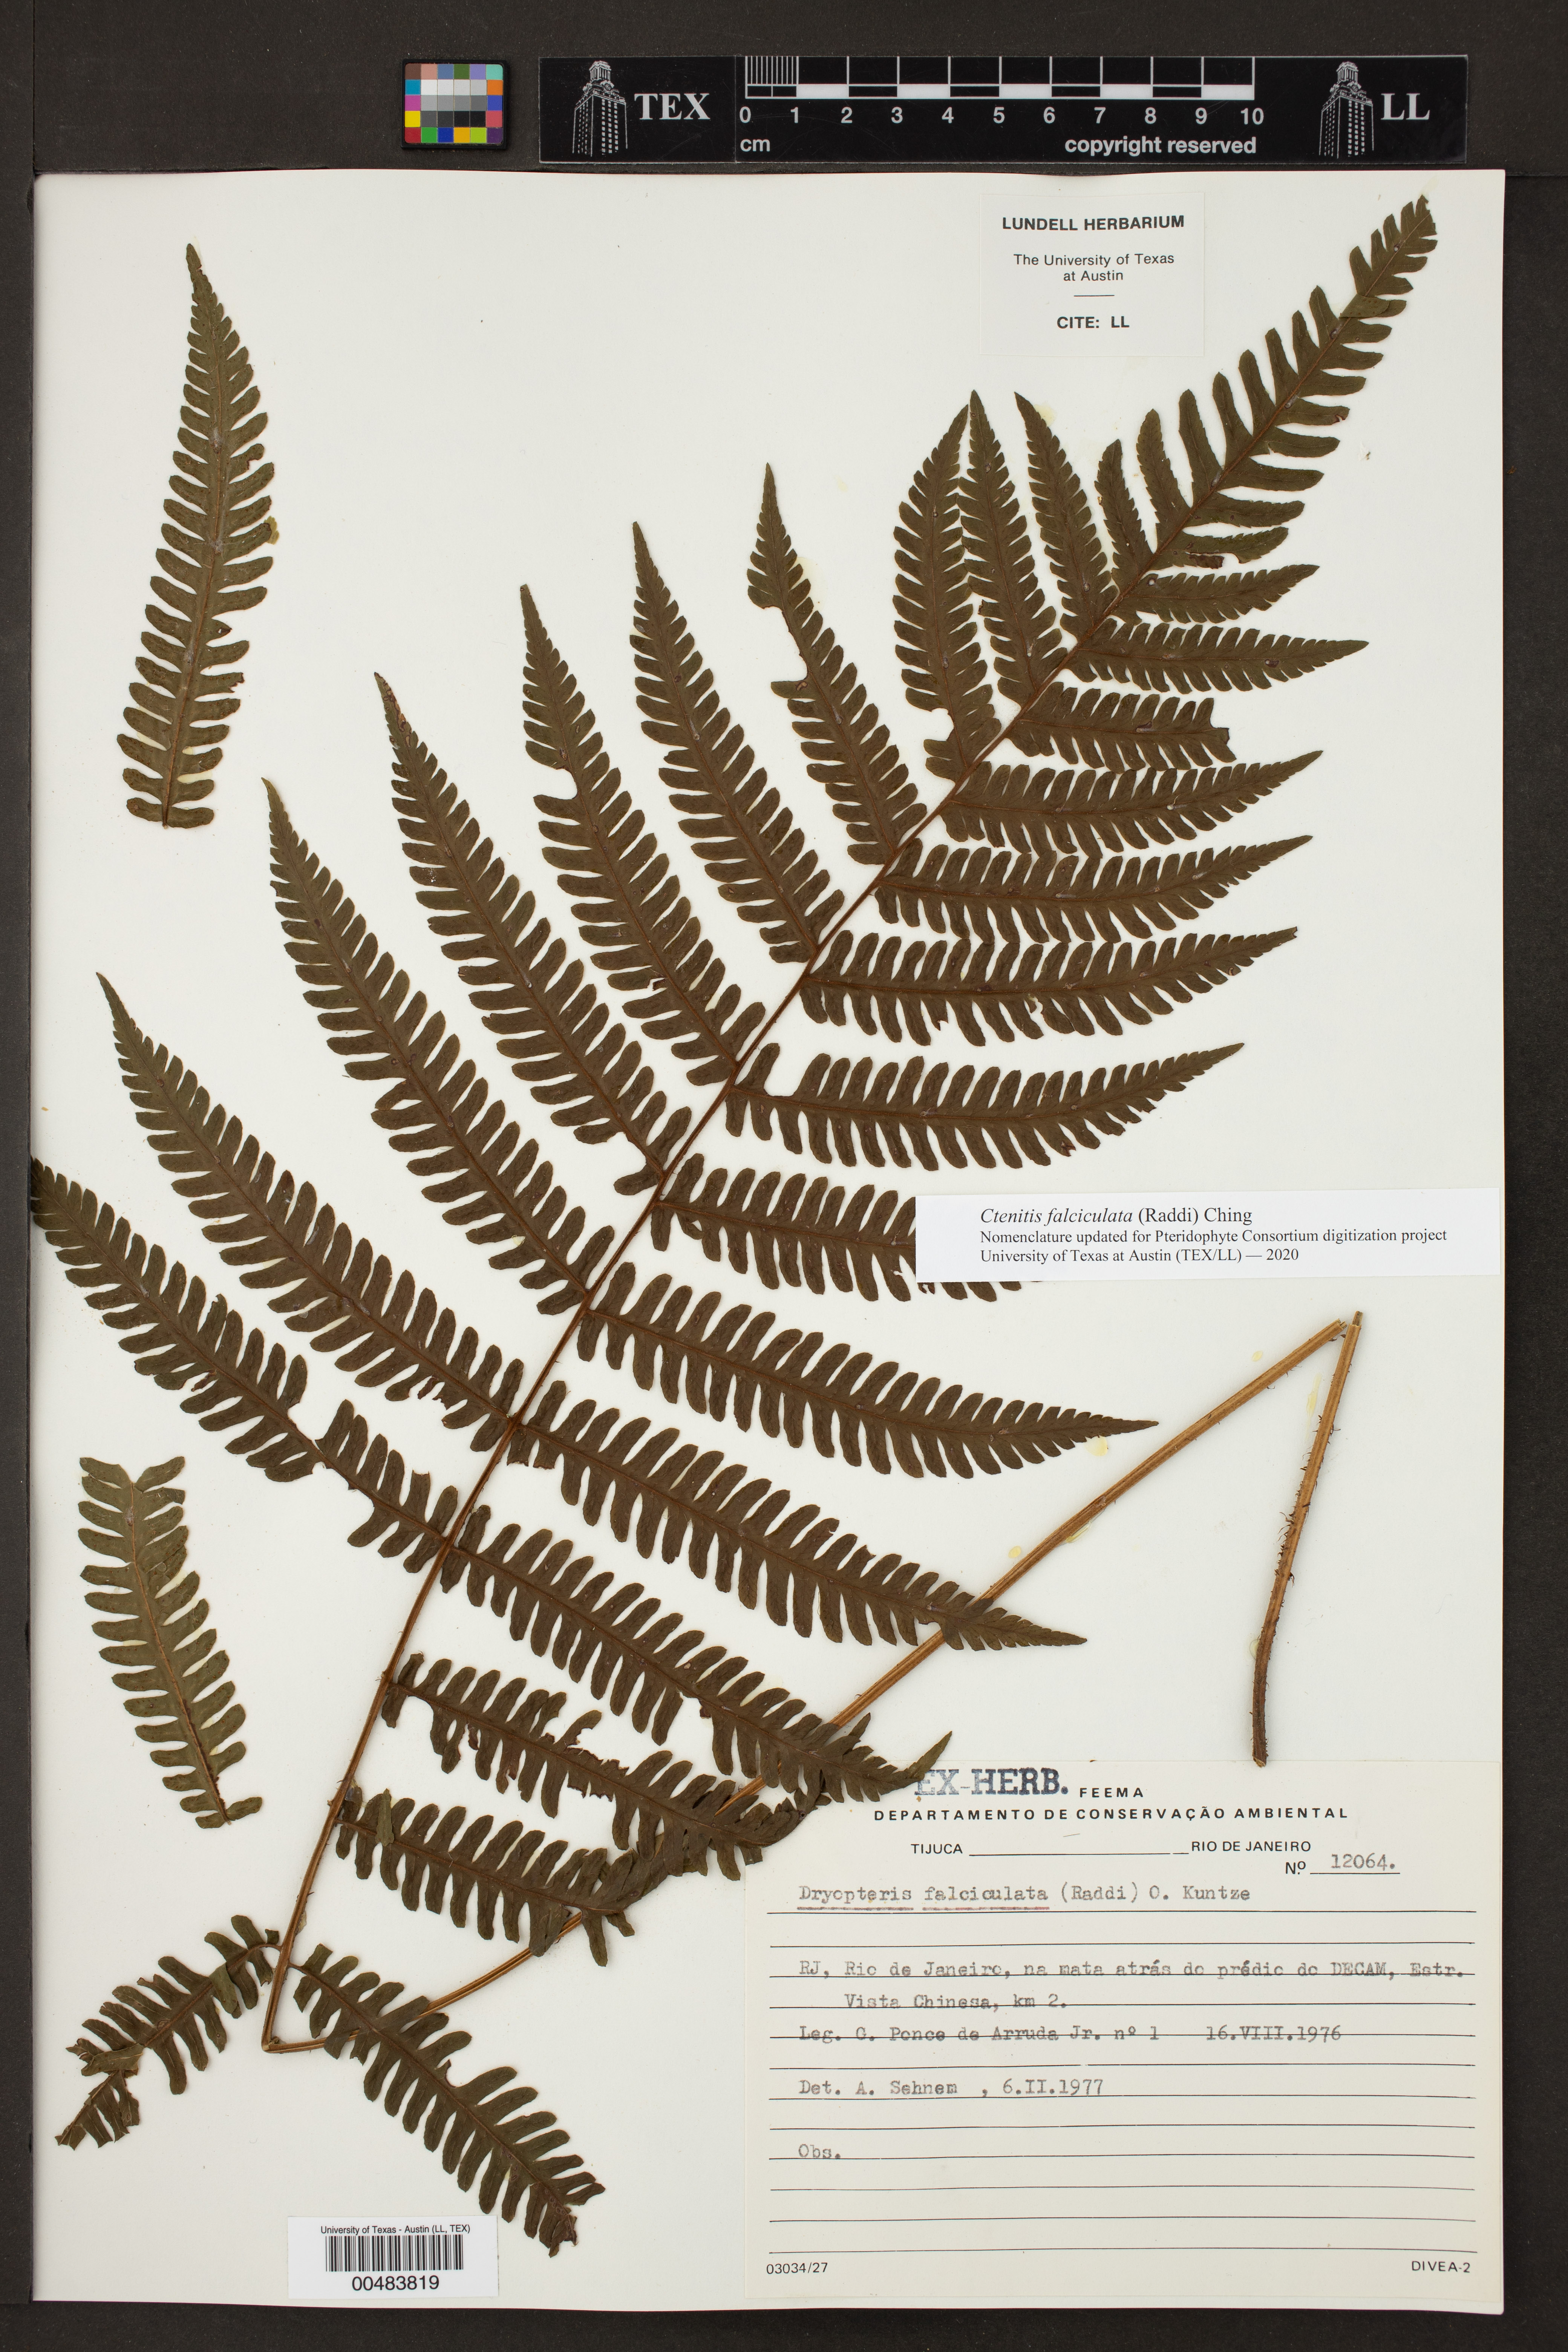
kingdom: Plantae
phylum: Tracheophyta
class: Polypodiopsida
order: Polypodiales
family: Dryopteridaceae
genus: Ctenitis
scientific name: Ctenitis
